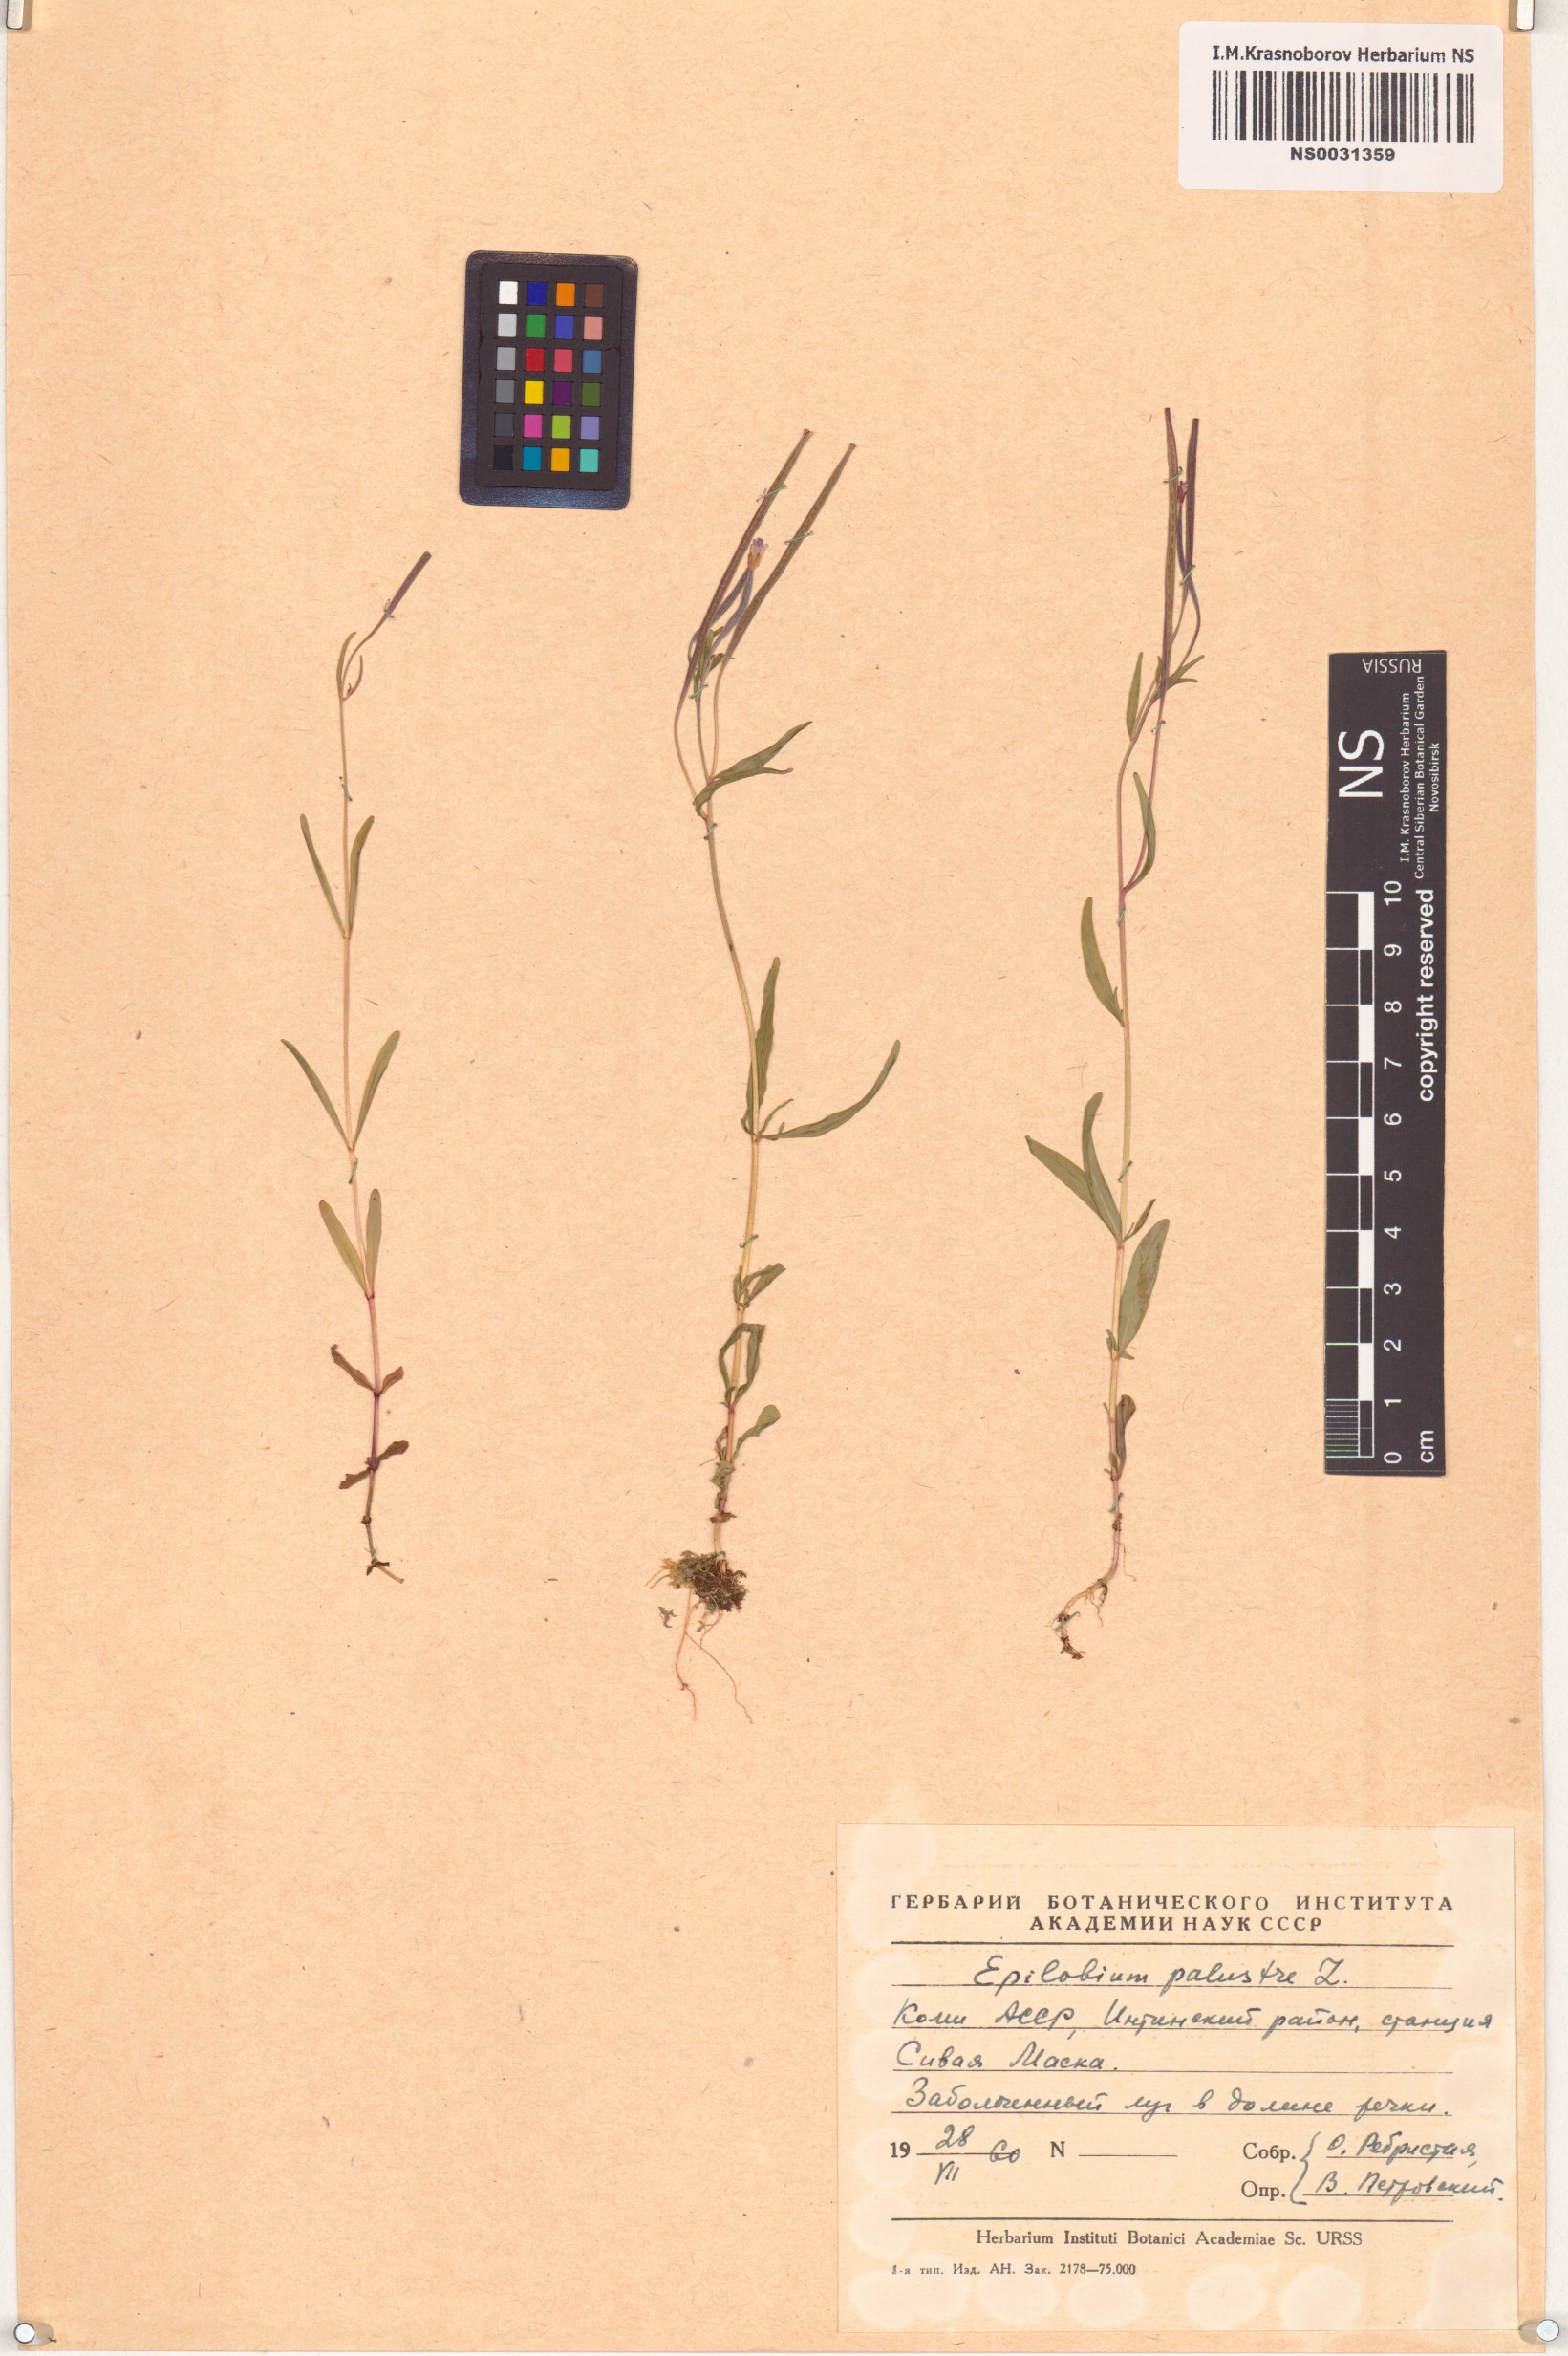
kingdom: Plantae
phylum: Tracheophyta
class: Magnoliopsida
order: Myrtales
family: Onagraceae
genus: Epilobium
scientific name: Epilobium palustre
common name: Marsh willowherb
